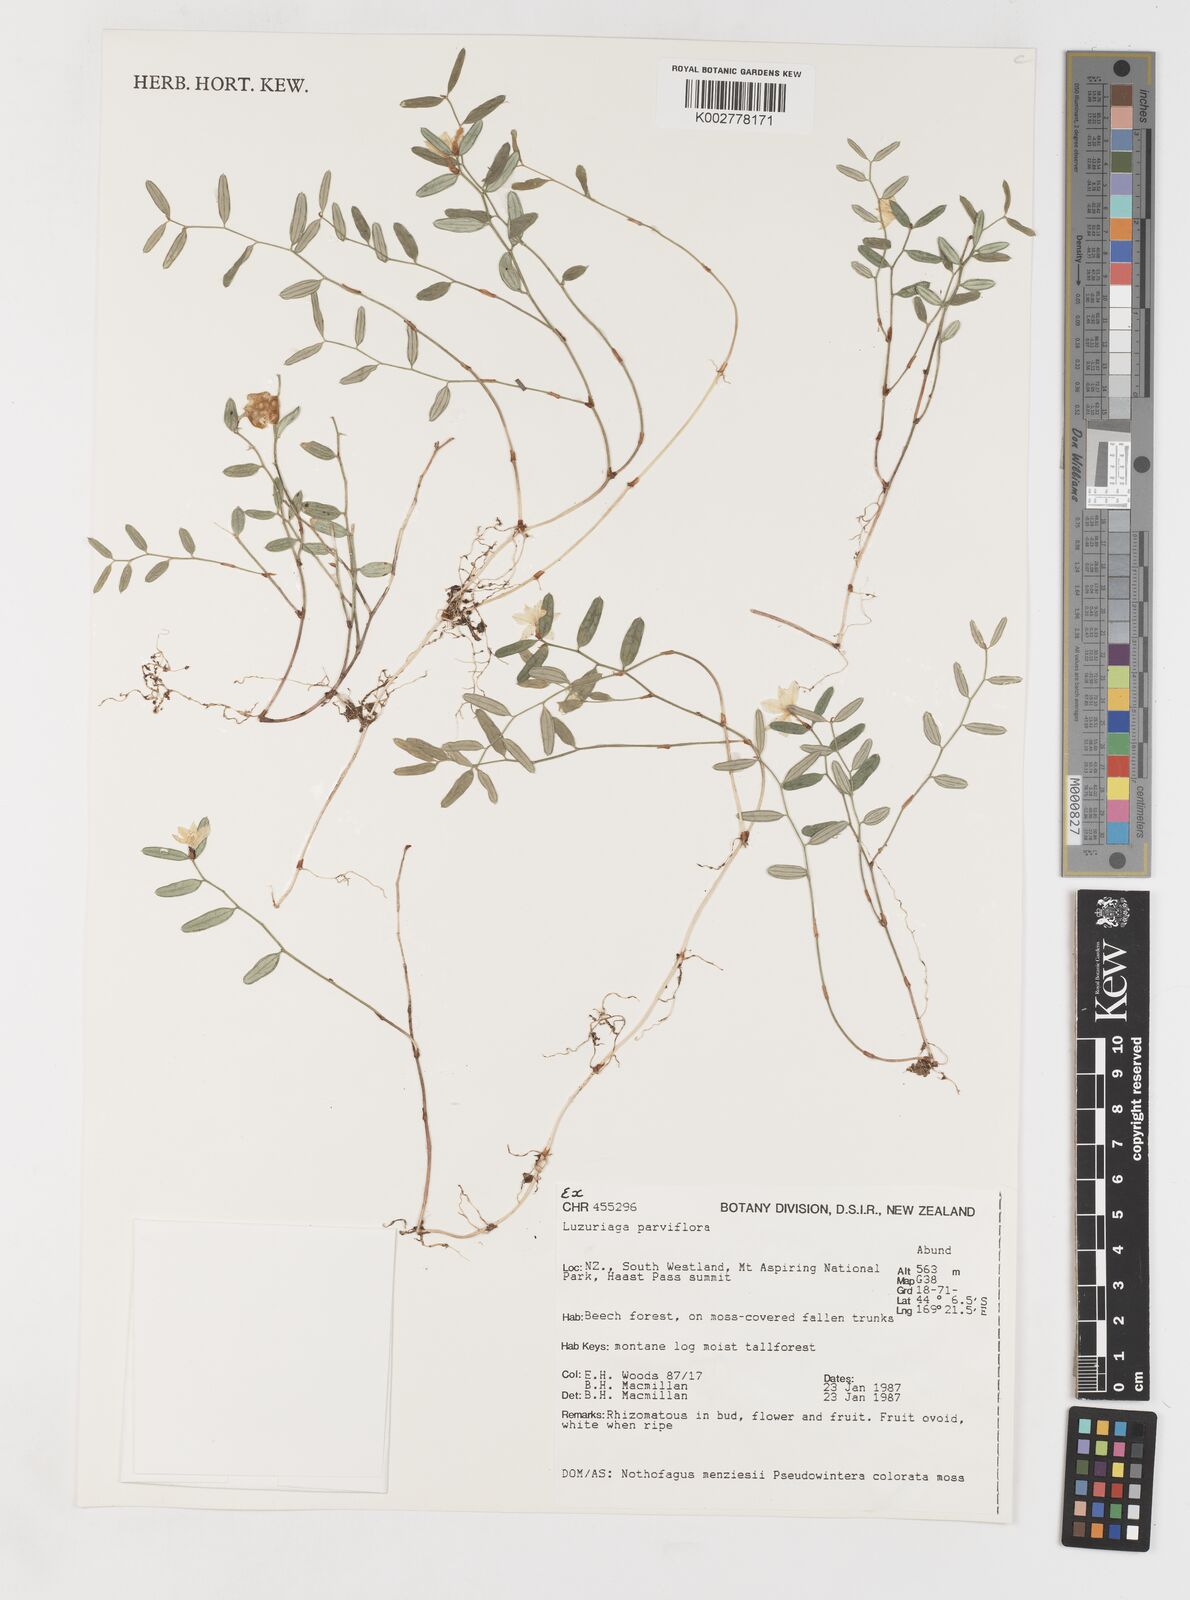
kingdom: Plantae
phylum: Tracheophyta
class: Liliopsida
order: Liliales
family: Alstroemeriaceae
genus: Luzuriaga
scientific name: Luzuriaga parviflora
